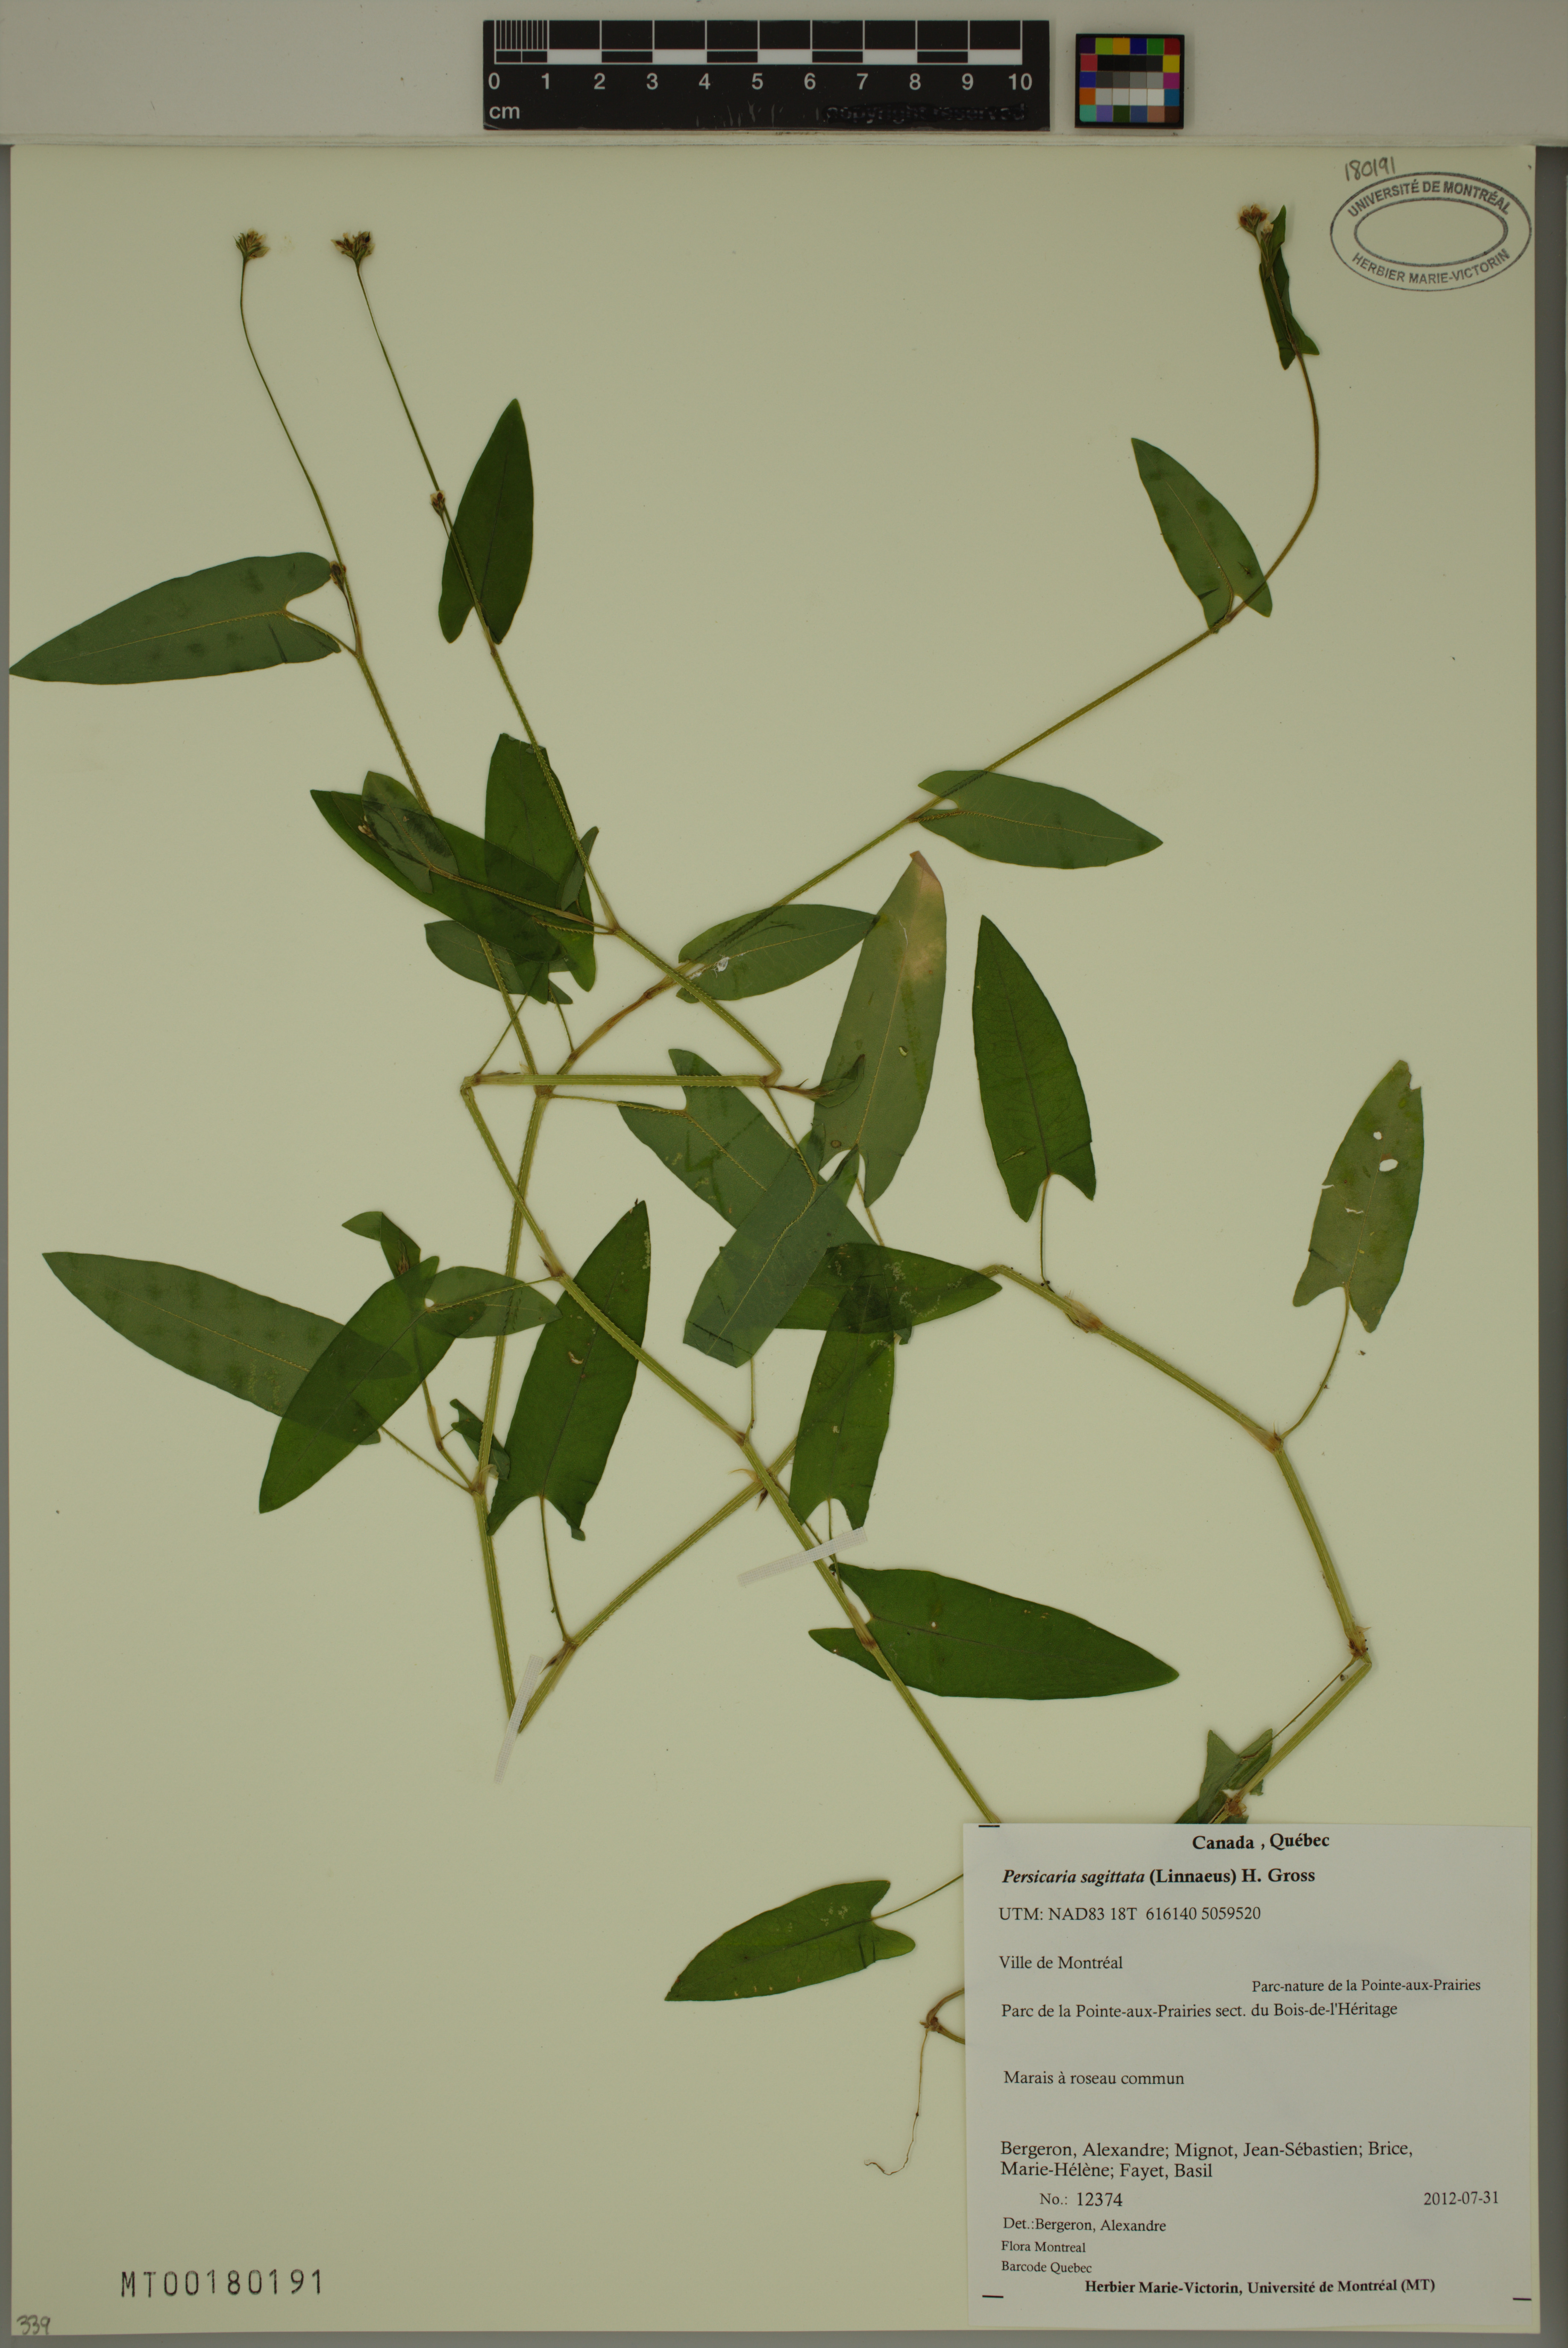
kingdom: Plantae
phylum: Tracheophyta
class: Magnoliopsida
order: Caryophyllales
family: Polygonaceae
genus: Persicaria
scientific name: Persicaria sagittata
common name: American tearthumb
